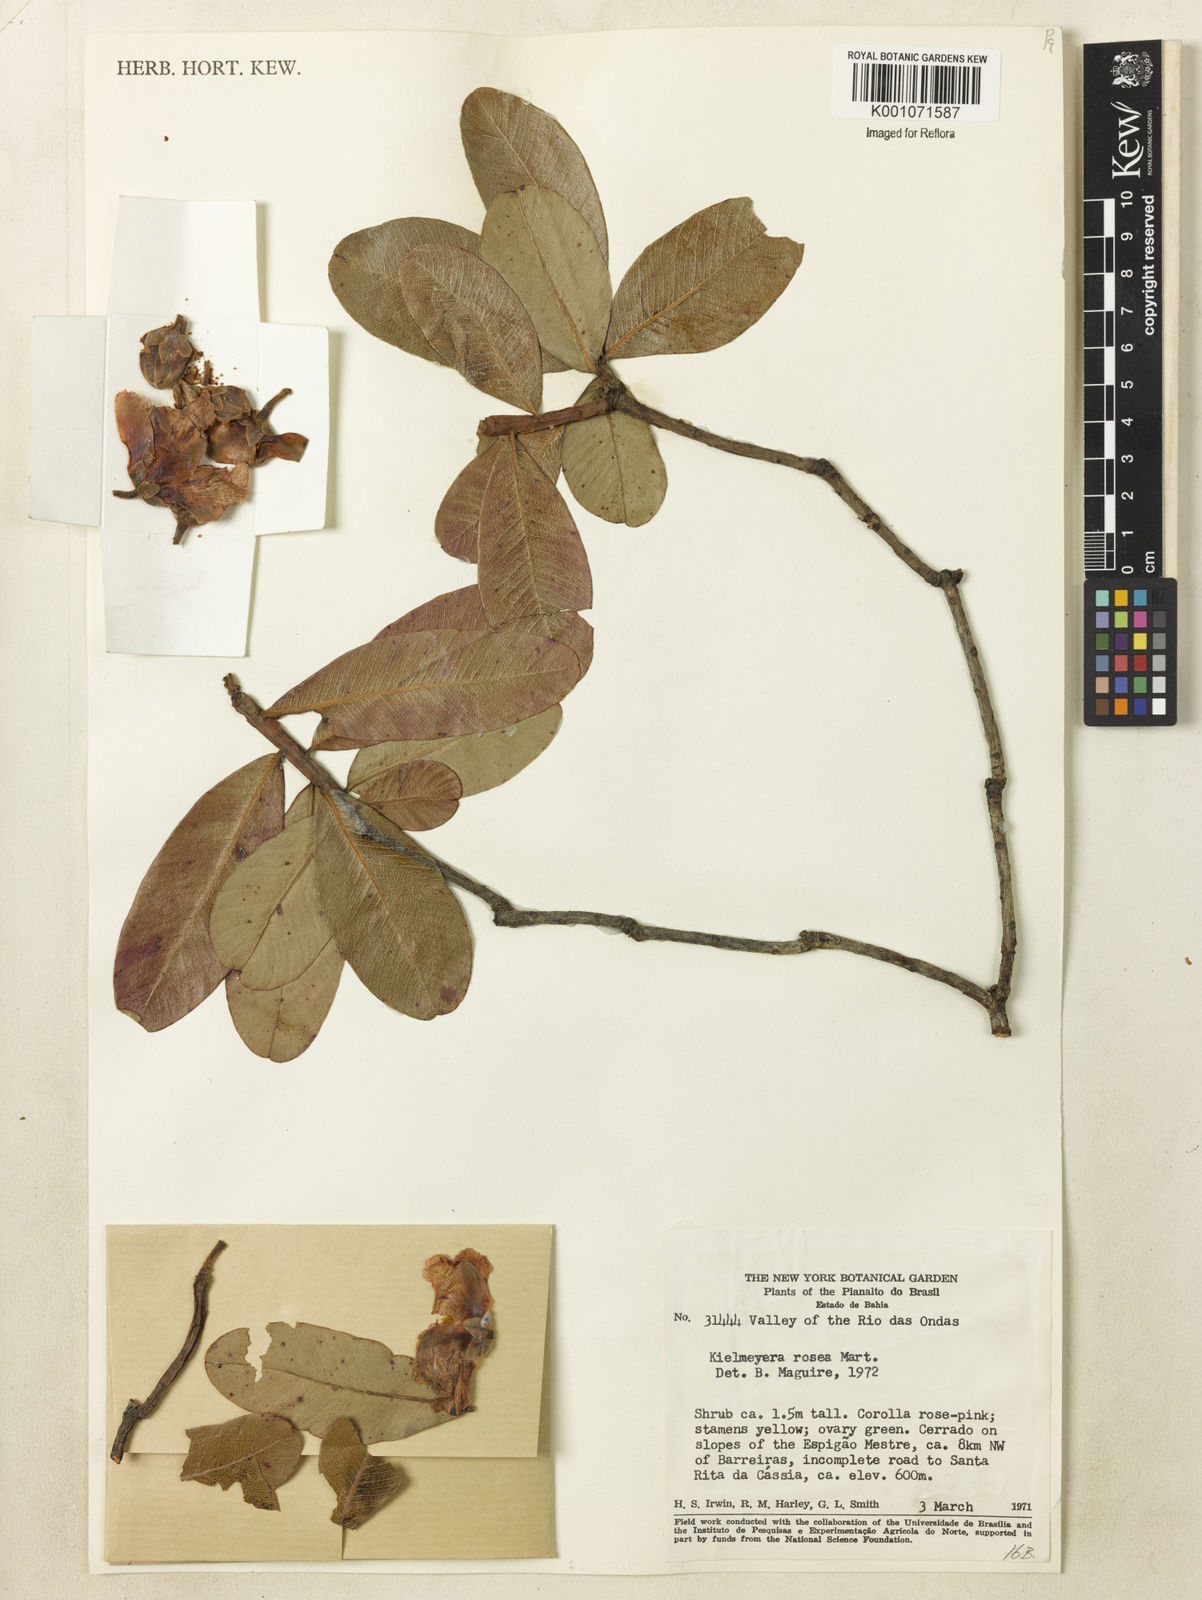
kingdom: Plantae
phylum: Tracheophyta
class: Magnoliopsida
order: Malpighiales
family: Calophyllaceae
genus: Kielmeyera
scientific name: Kielmeyera rubriflora
